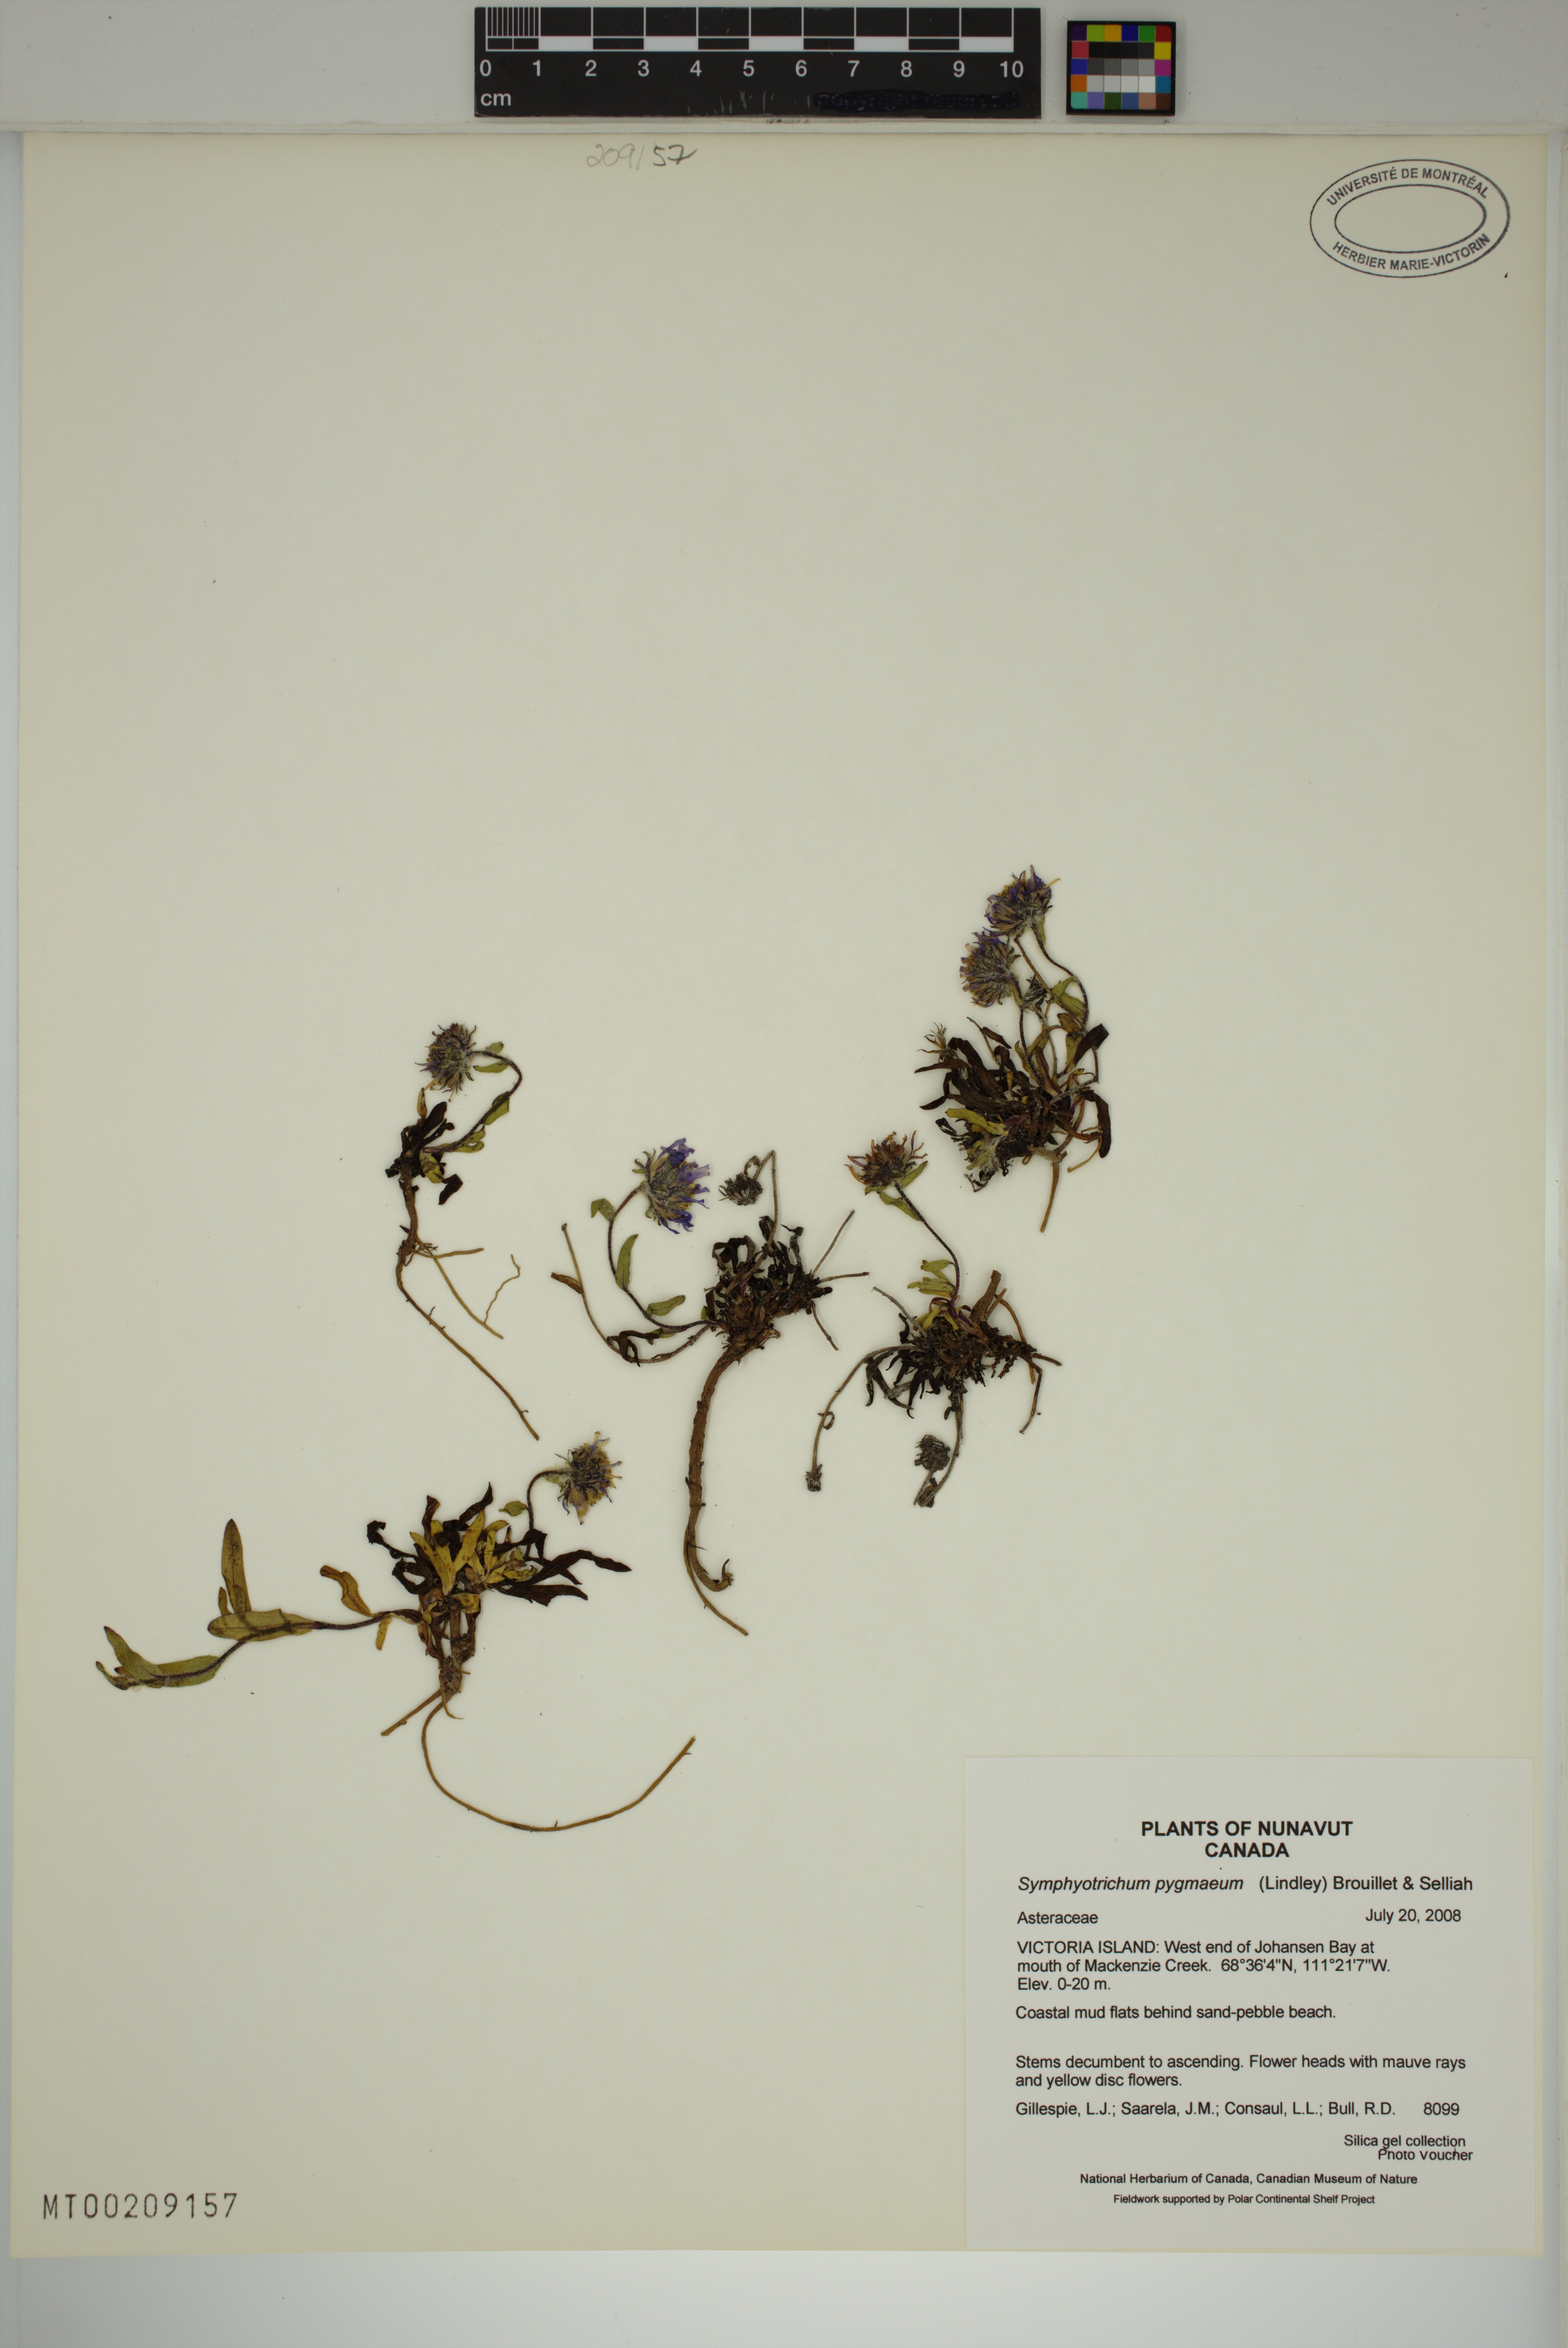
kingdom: Plantae
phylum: Tracheophyta
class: Magnoliopsida
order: Asterales
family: Asteraceae
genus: Symphyotrichum
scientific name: Symphyotrichum pygmaeum
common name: Pygmy aster
